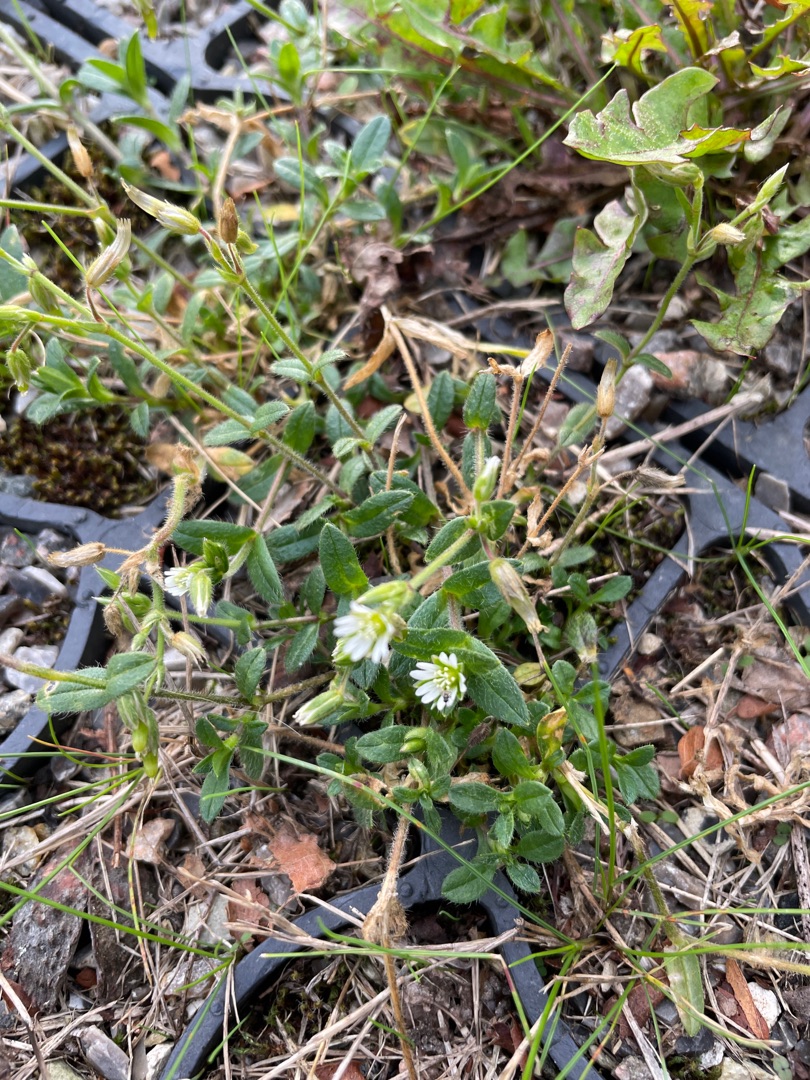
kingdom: Plantae
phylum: Tracheophyta
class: Magnoliopsida
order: Caryophyllales
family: Caryophyllaceae
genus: Cerastium
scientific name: Cerastium fontanum
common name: Almindelig hønsetarm
